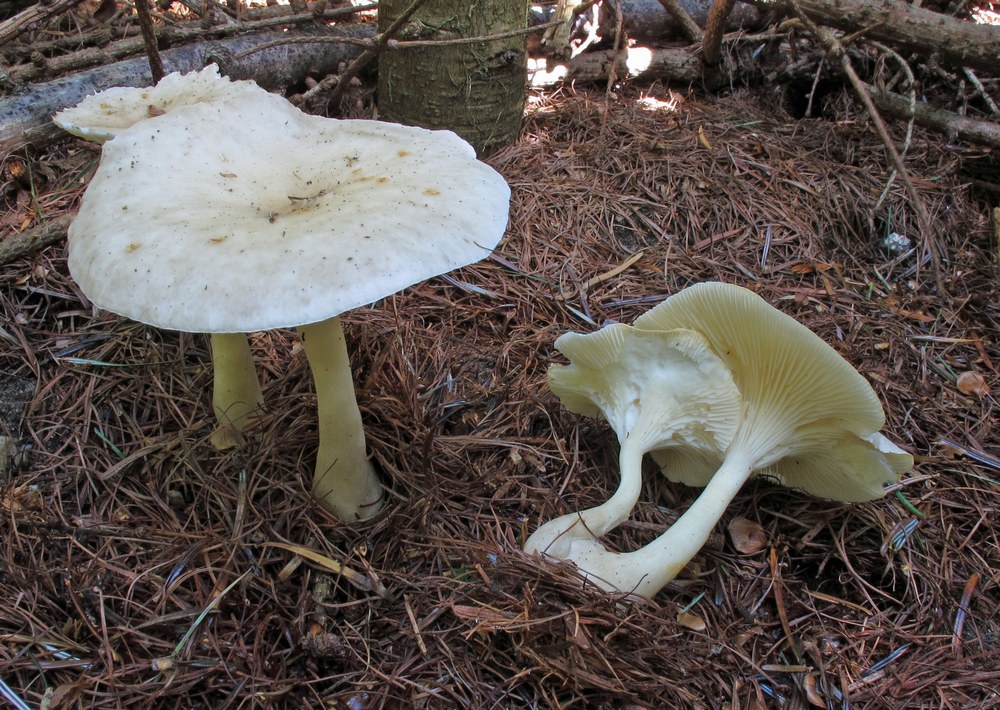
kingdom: Fungi
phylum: Basidiomycota
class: Agaricomycetes
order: Agaricales
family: Hygrophoraceae
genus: Ampulloclitocybe
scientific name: Ampulloclitocybe clavipes
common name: køllefod
